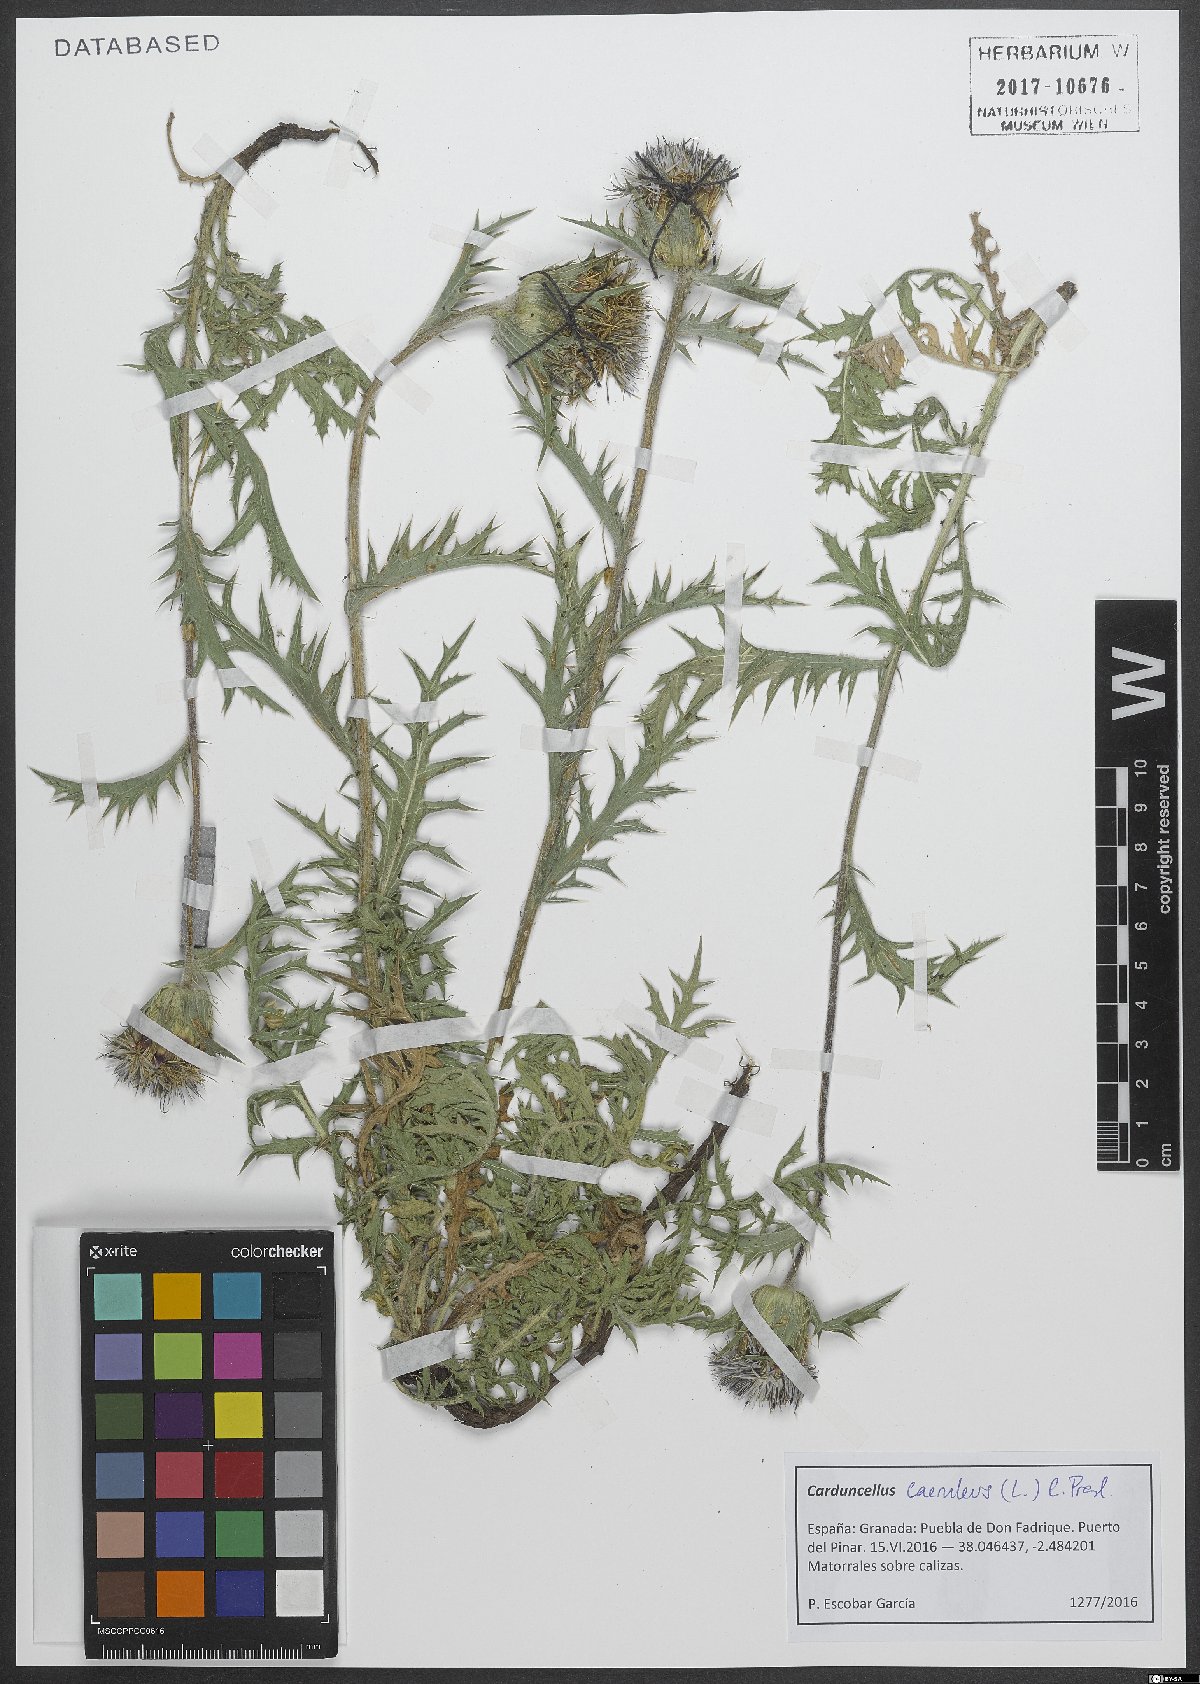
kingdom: Plantae
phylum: Tracheophyta
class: Magnoliopsida
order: Asterales
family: Asteraceae
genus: Carduncellus
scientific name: Carduncellus caeruleus
